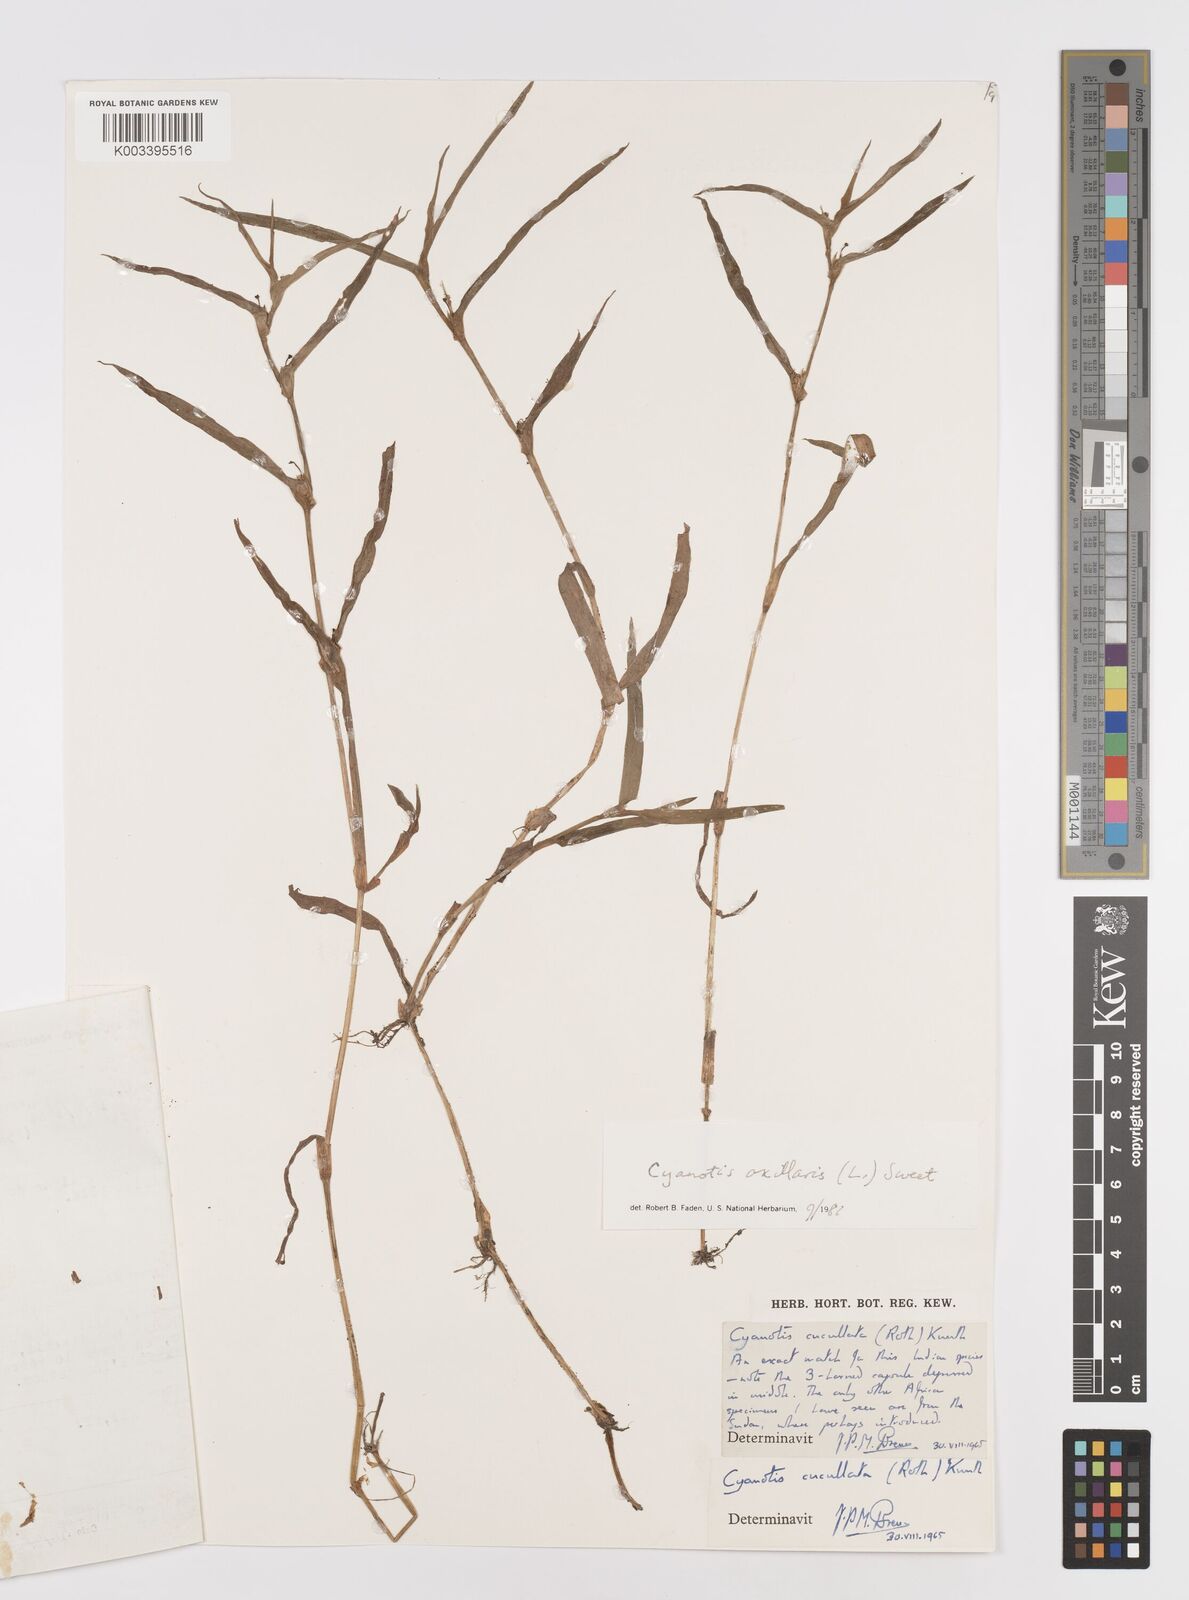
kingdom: Plantae
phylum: Tracheophyta
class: Liliopsida
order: Commelinales
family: Commelinaceae
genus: Cyanotis
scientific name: Cyanotis axillaris
